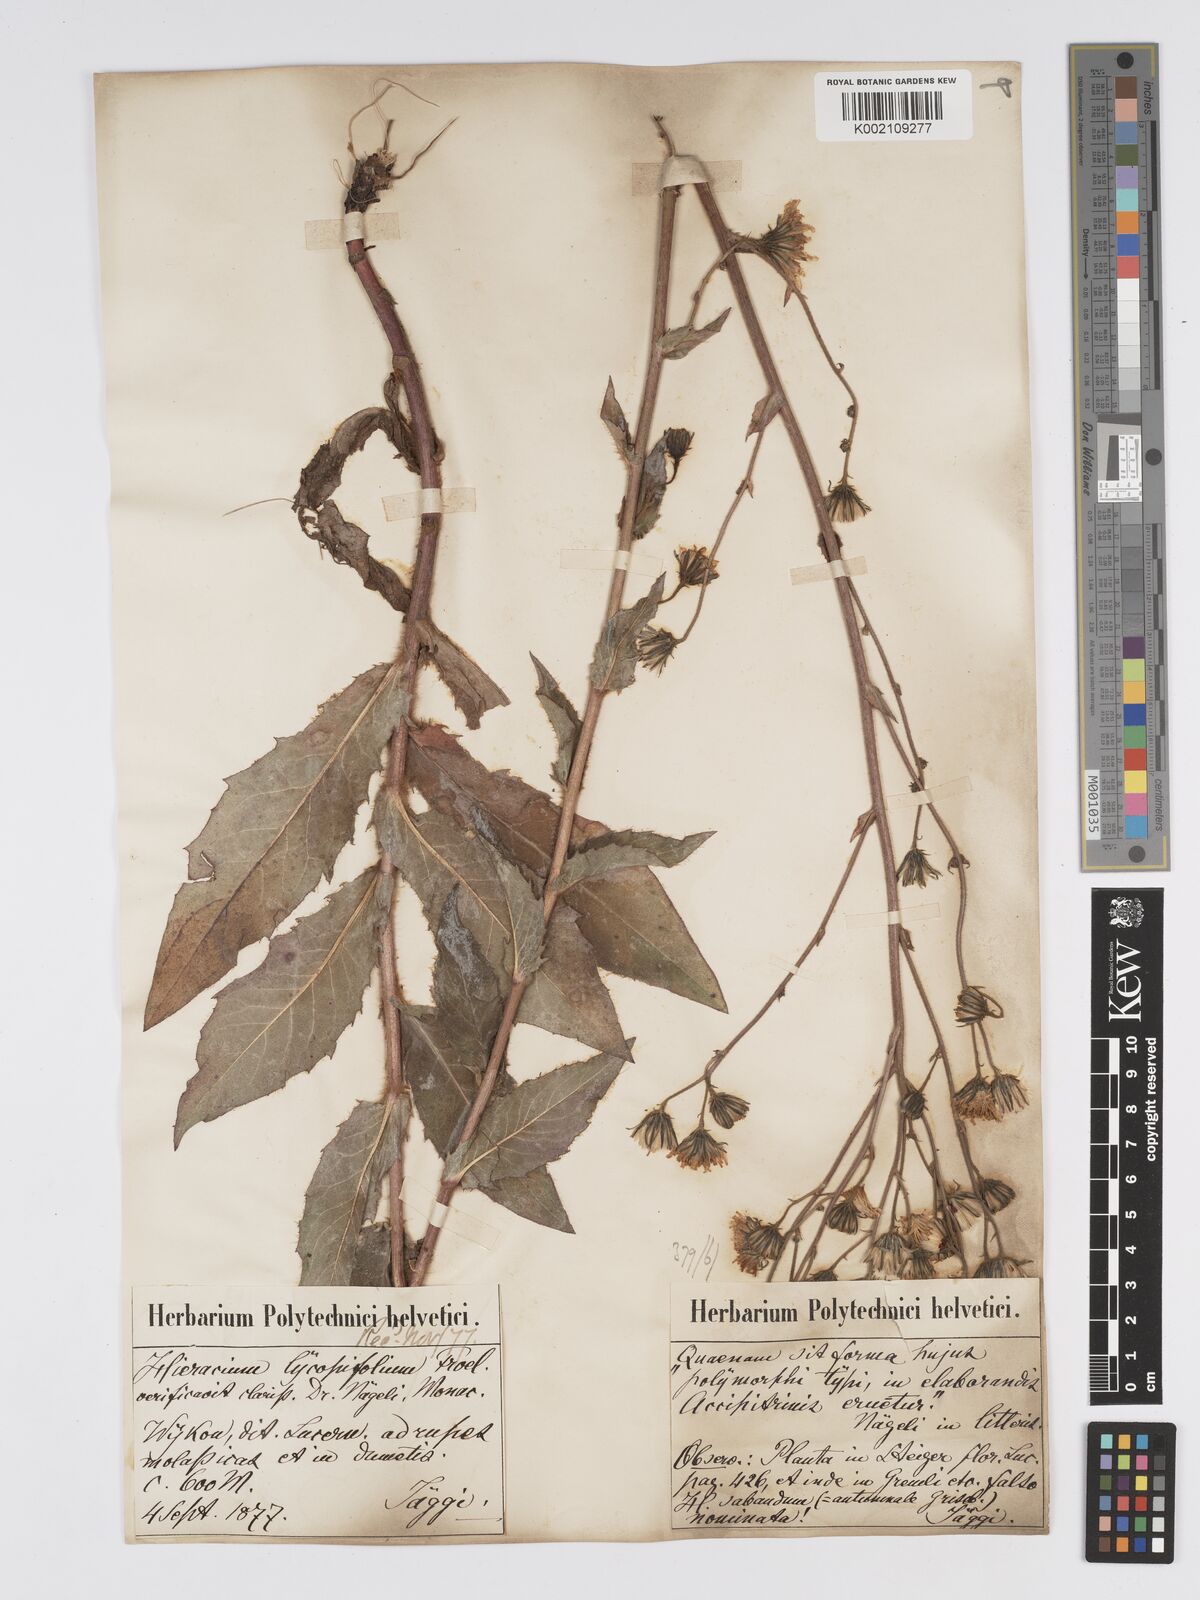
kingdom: Plantae
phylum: Tracheophyta
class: Magnoliopsida
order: Asterales
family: Asteraceae
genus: Hieracium
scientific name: Hieracium lycopifolium
